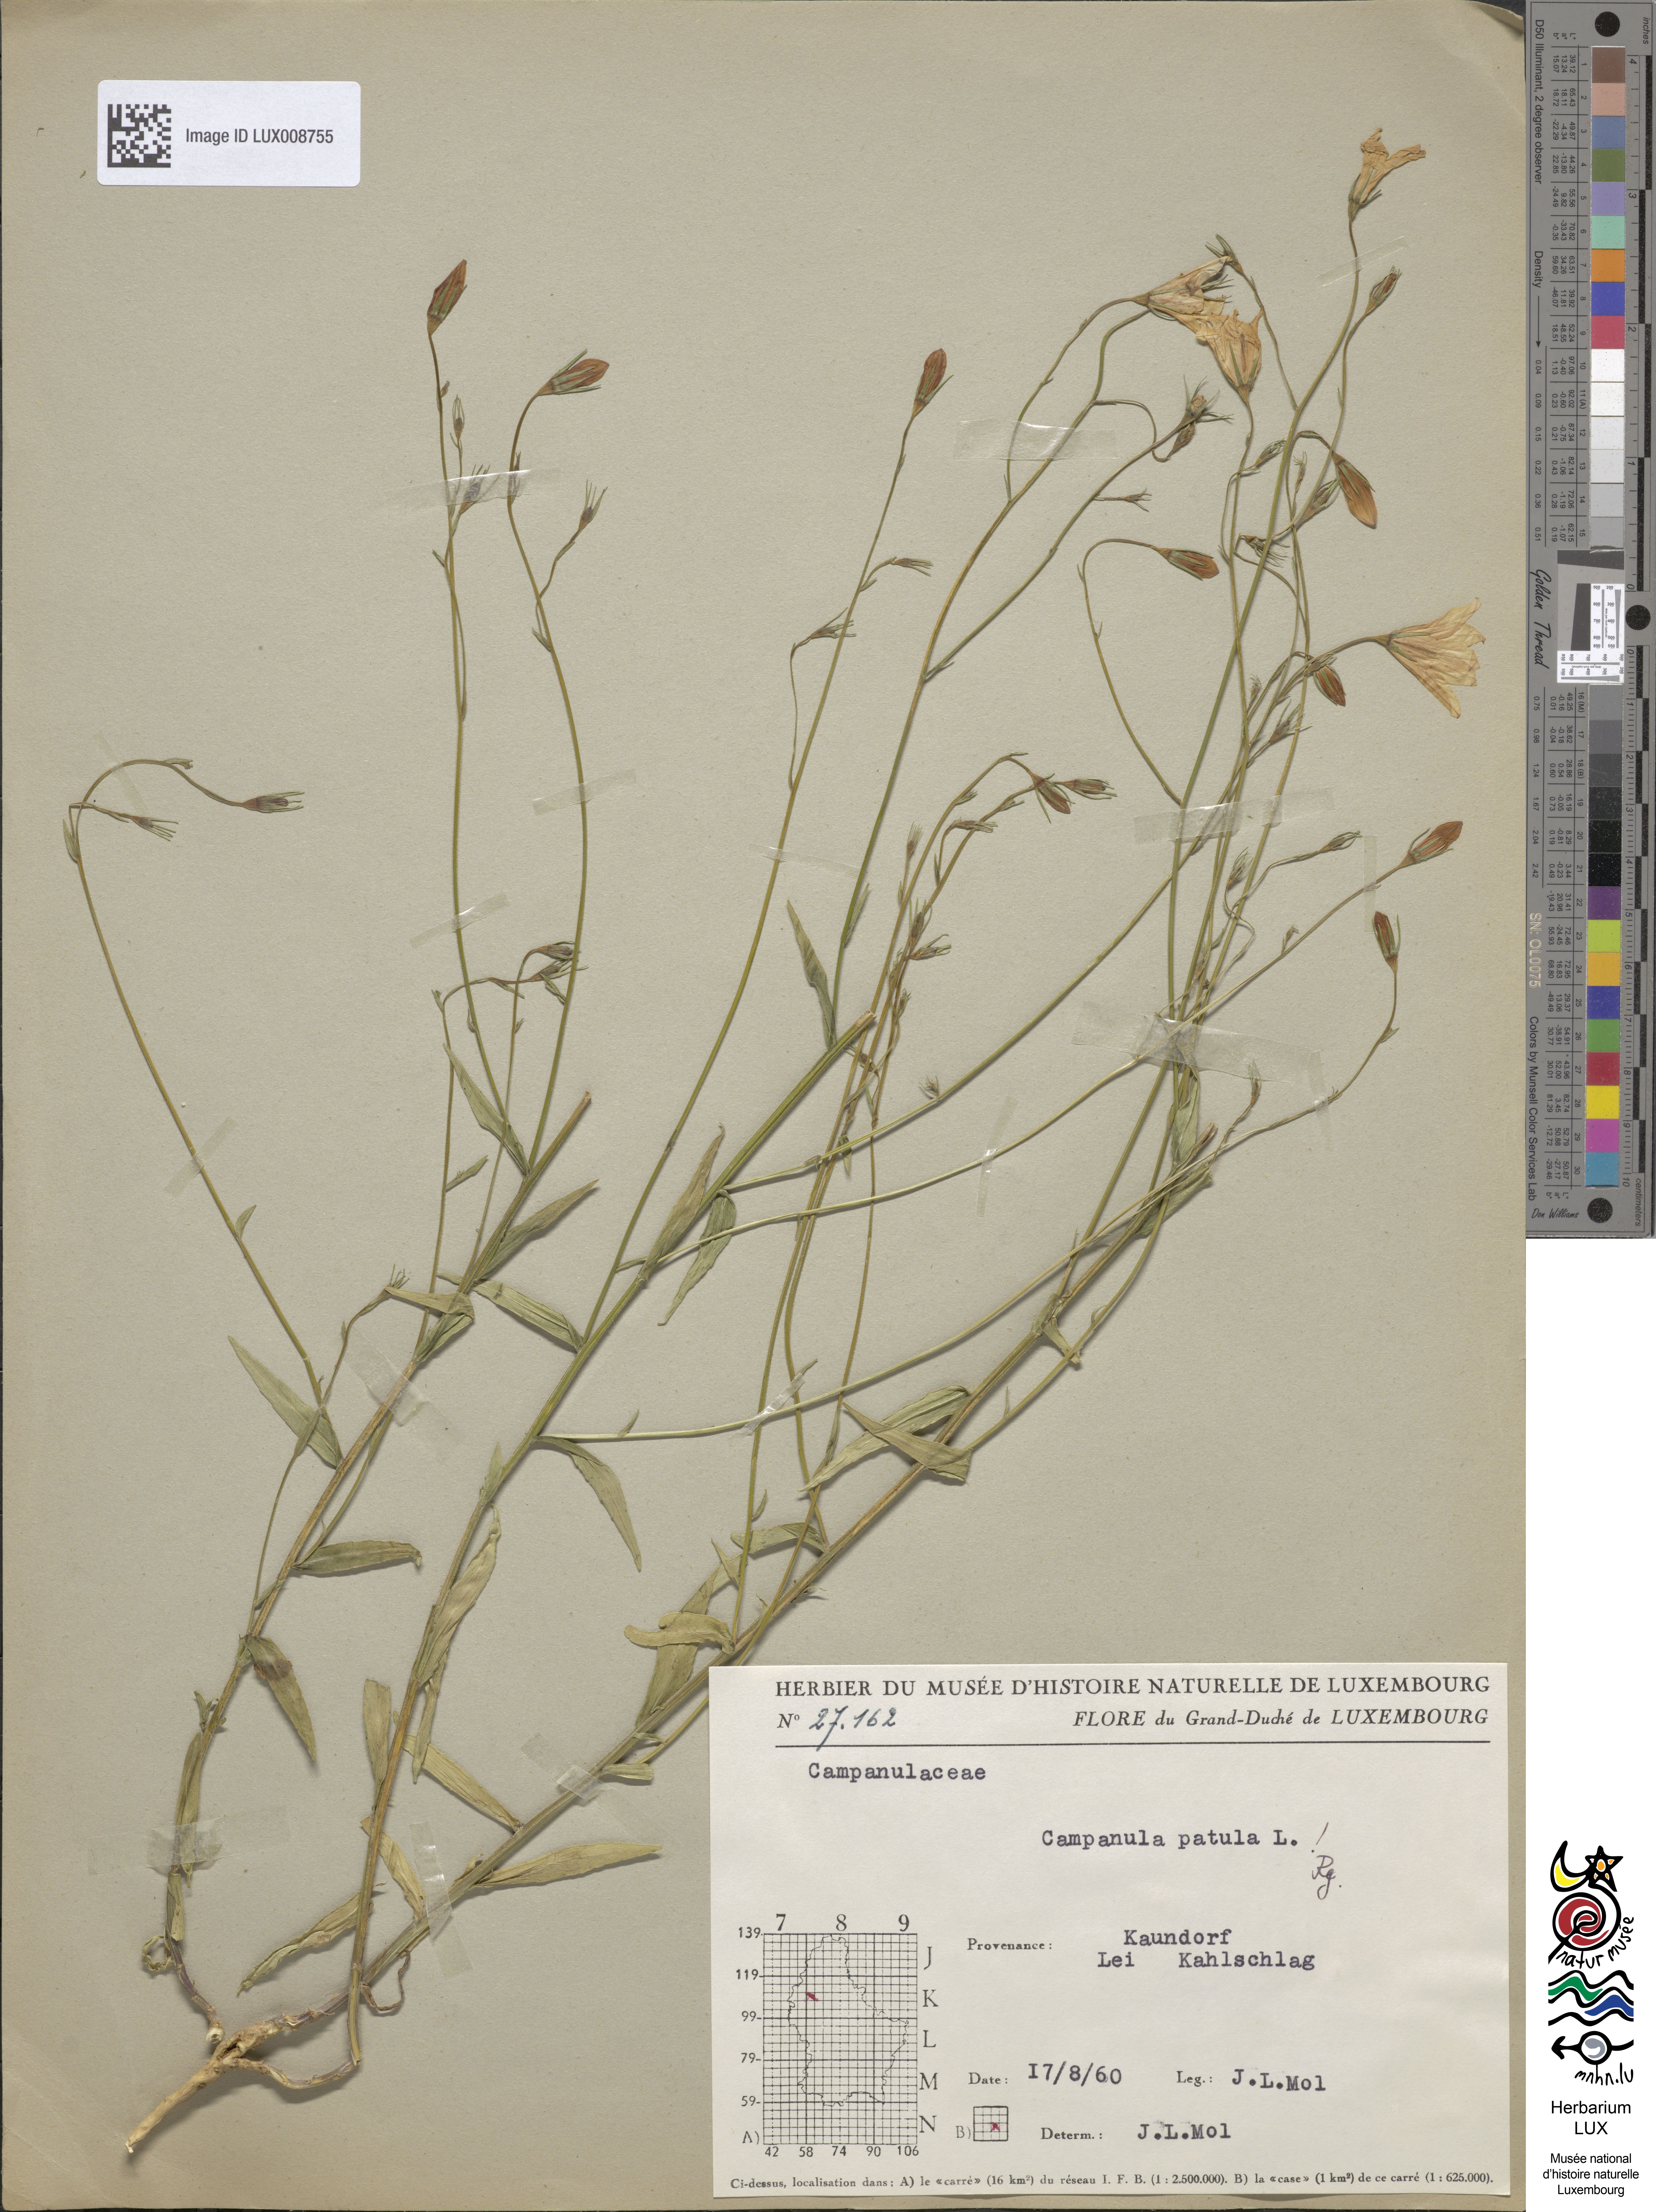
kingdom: Plantae
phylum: Tracheophyta
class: Magnoliopsida
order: Asterales
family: Campanulaceae
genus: Campanula
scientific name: Campanula patula
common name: Spreading bellflower
